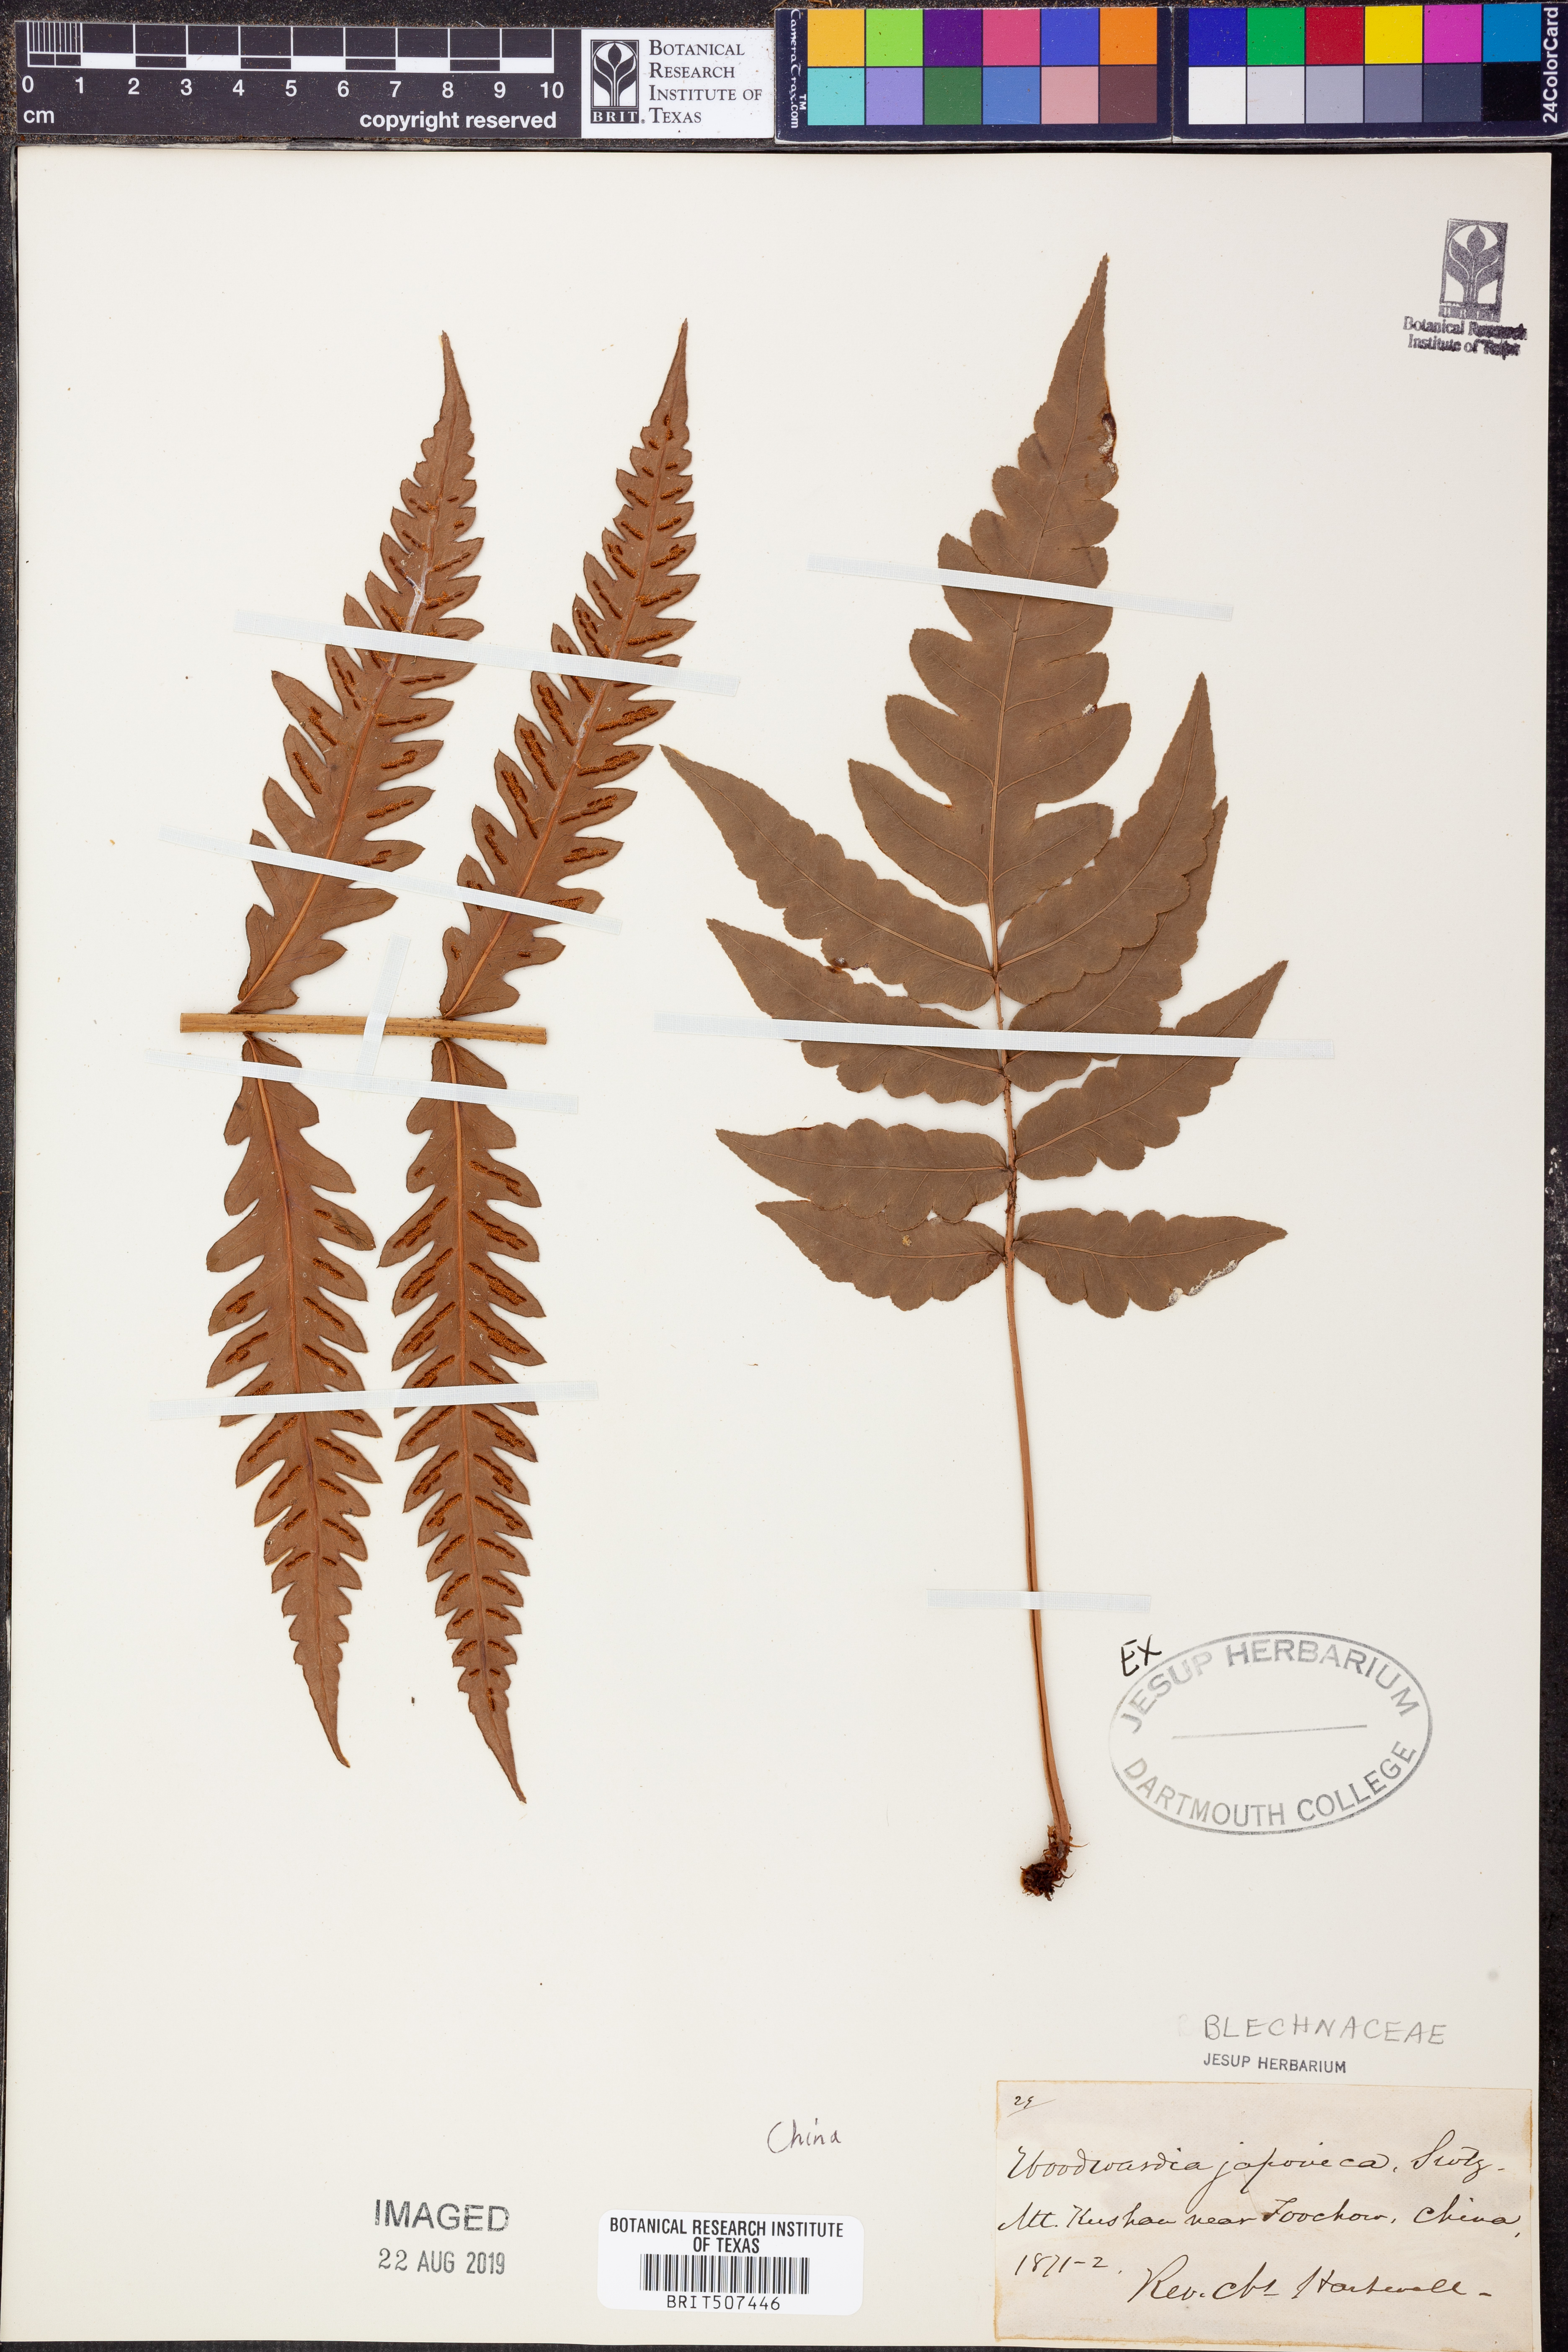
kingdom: Plantae
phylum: Tracheophyta
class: Polypodiopsida
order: Polypodiales
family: Blechnaceae
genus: Woodwardia
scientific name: Woodwardia japonica
